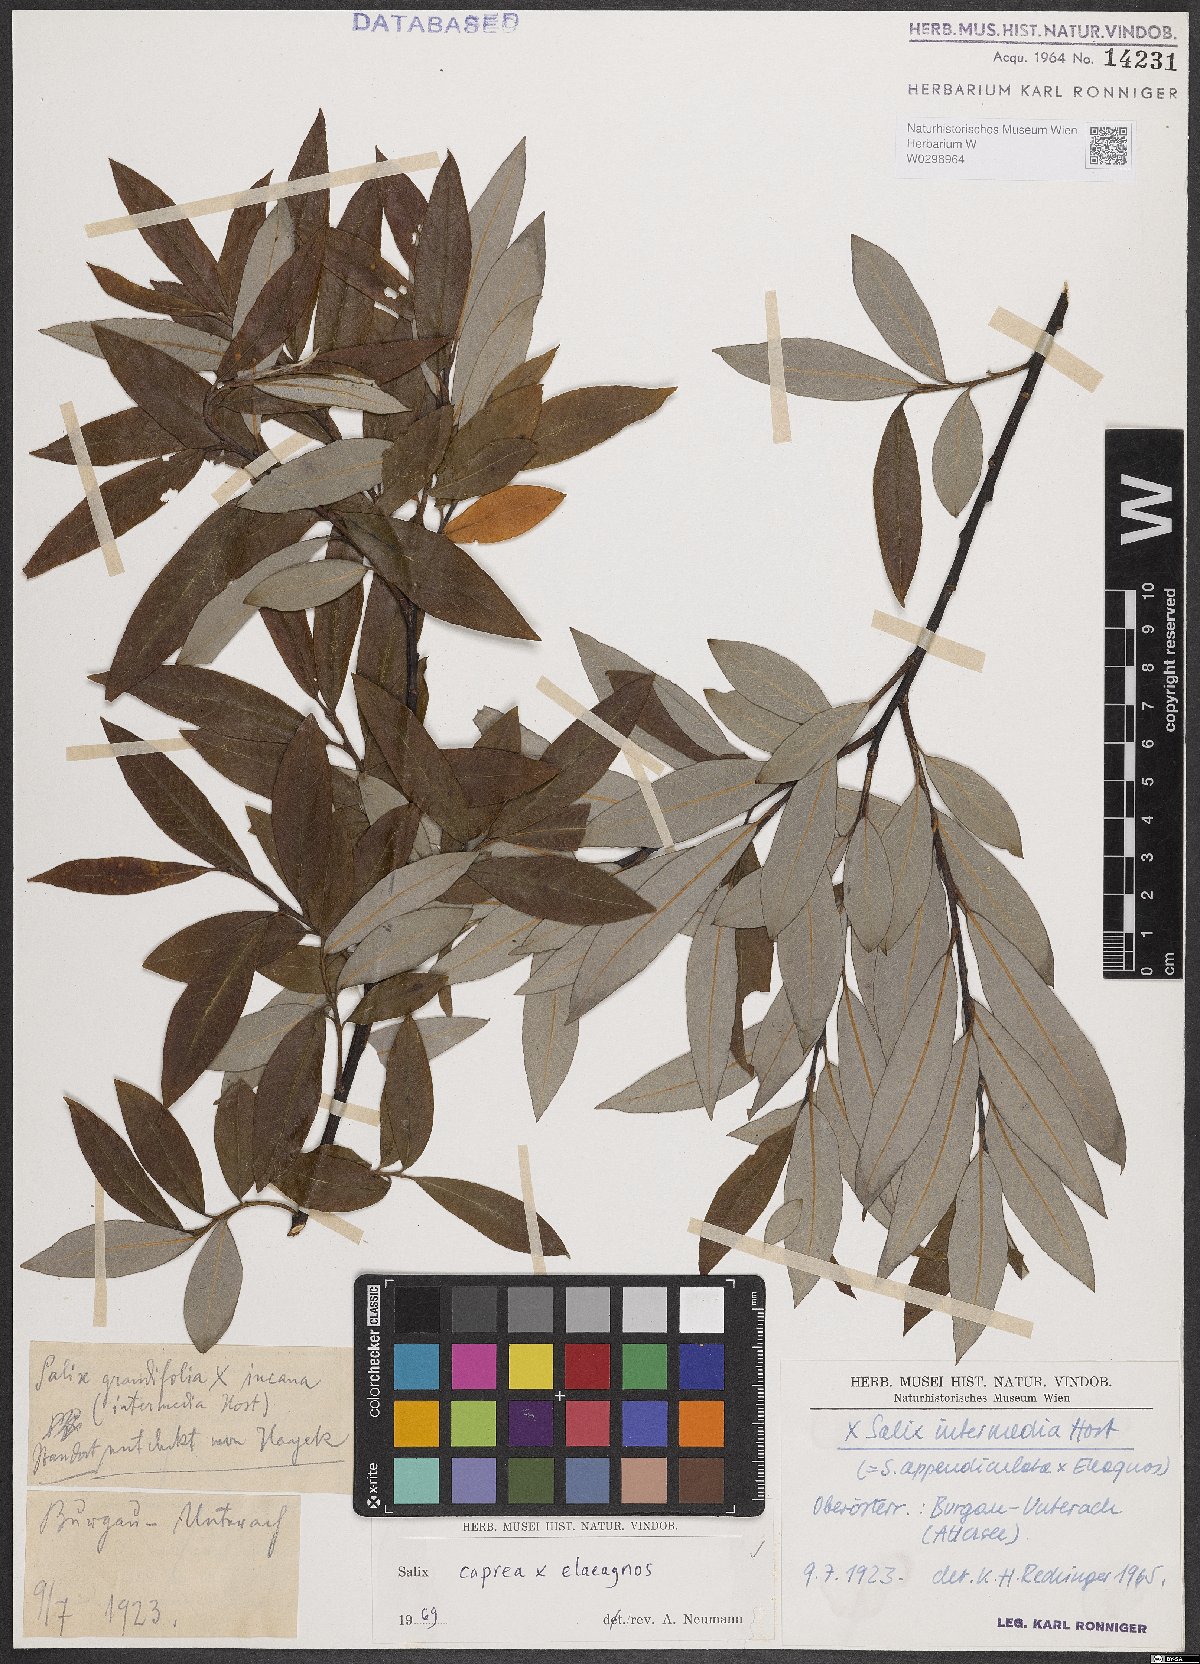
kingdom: Plantae
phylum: Tracheophyta
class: Magnoliopsida
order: Malpighiales
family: Salicaceae
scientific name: Salicaceae
